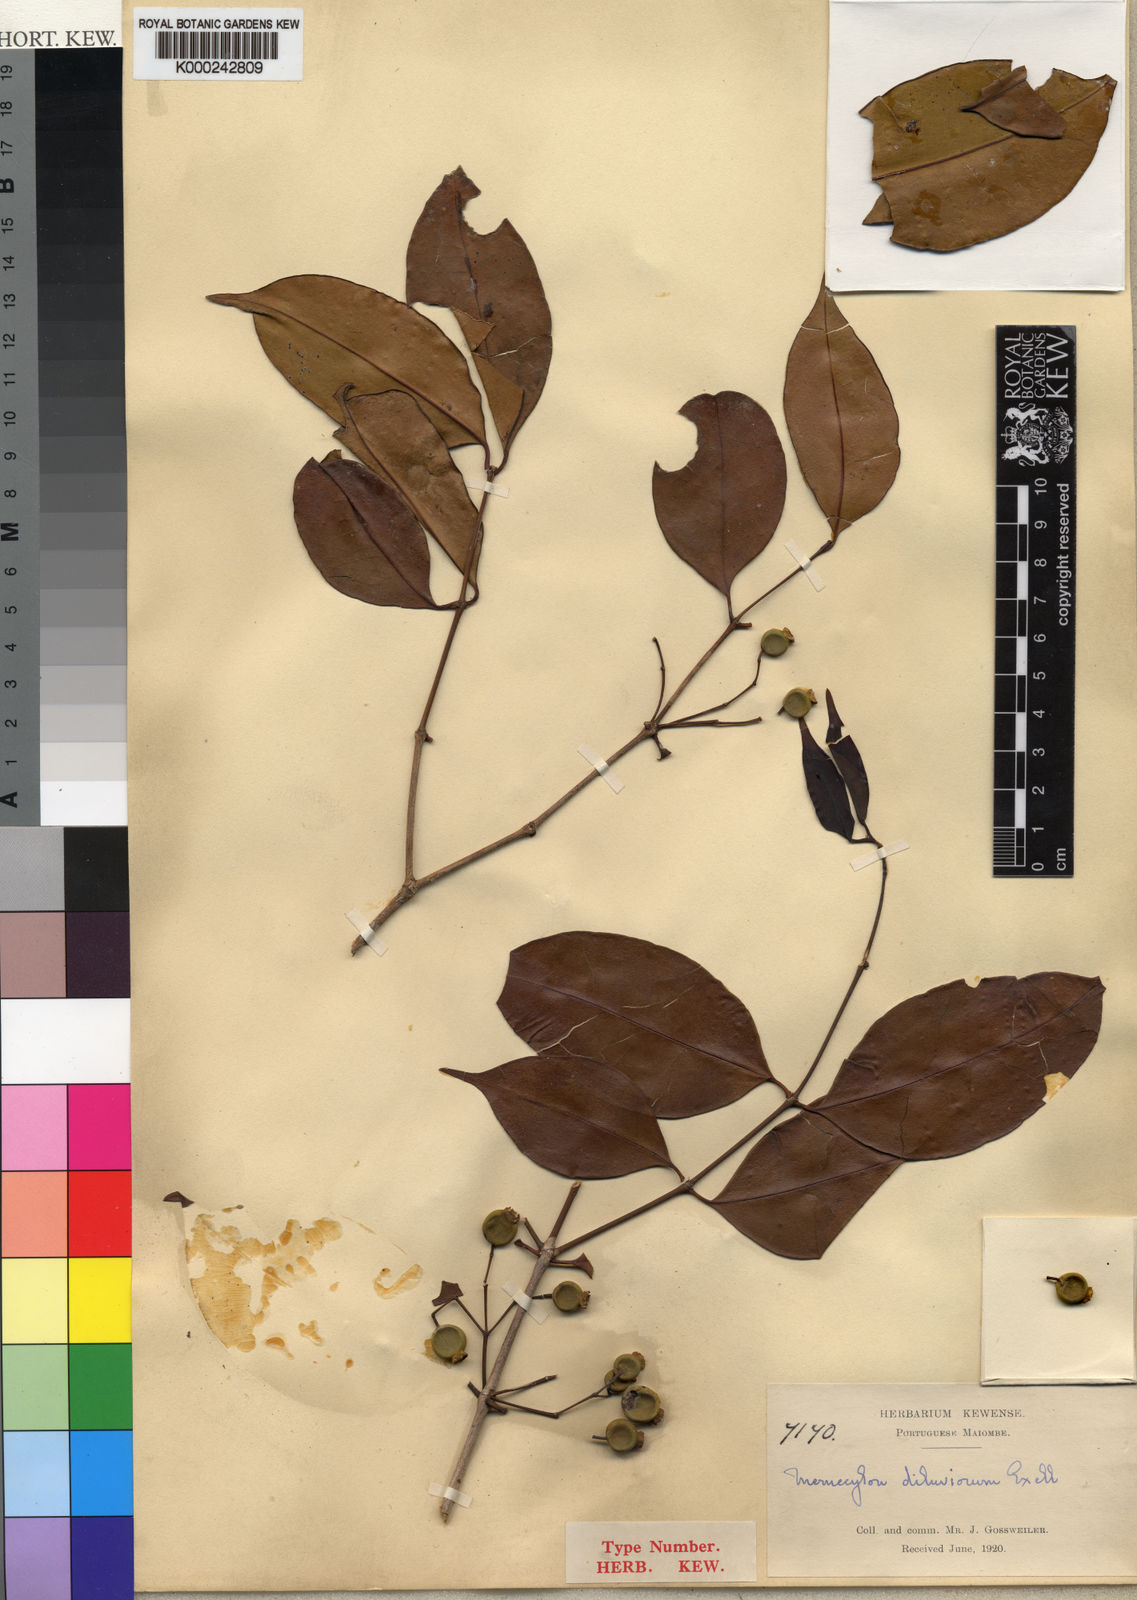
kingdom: Plantae
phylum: Tracheophyta
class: Magnoliopsida
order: Myrtales
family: Melastomataceae
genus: Memecylon
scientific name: Memecylon diluviorum
